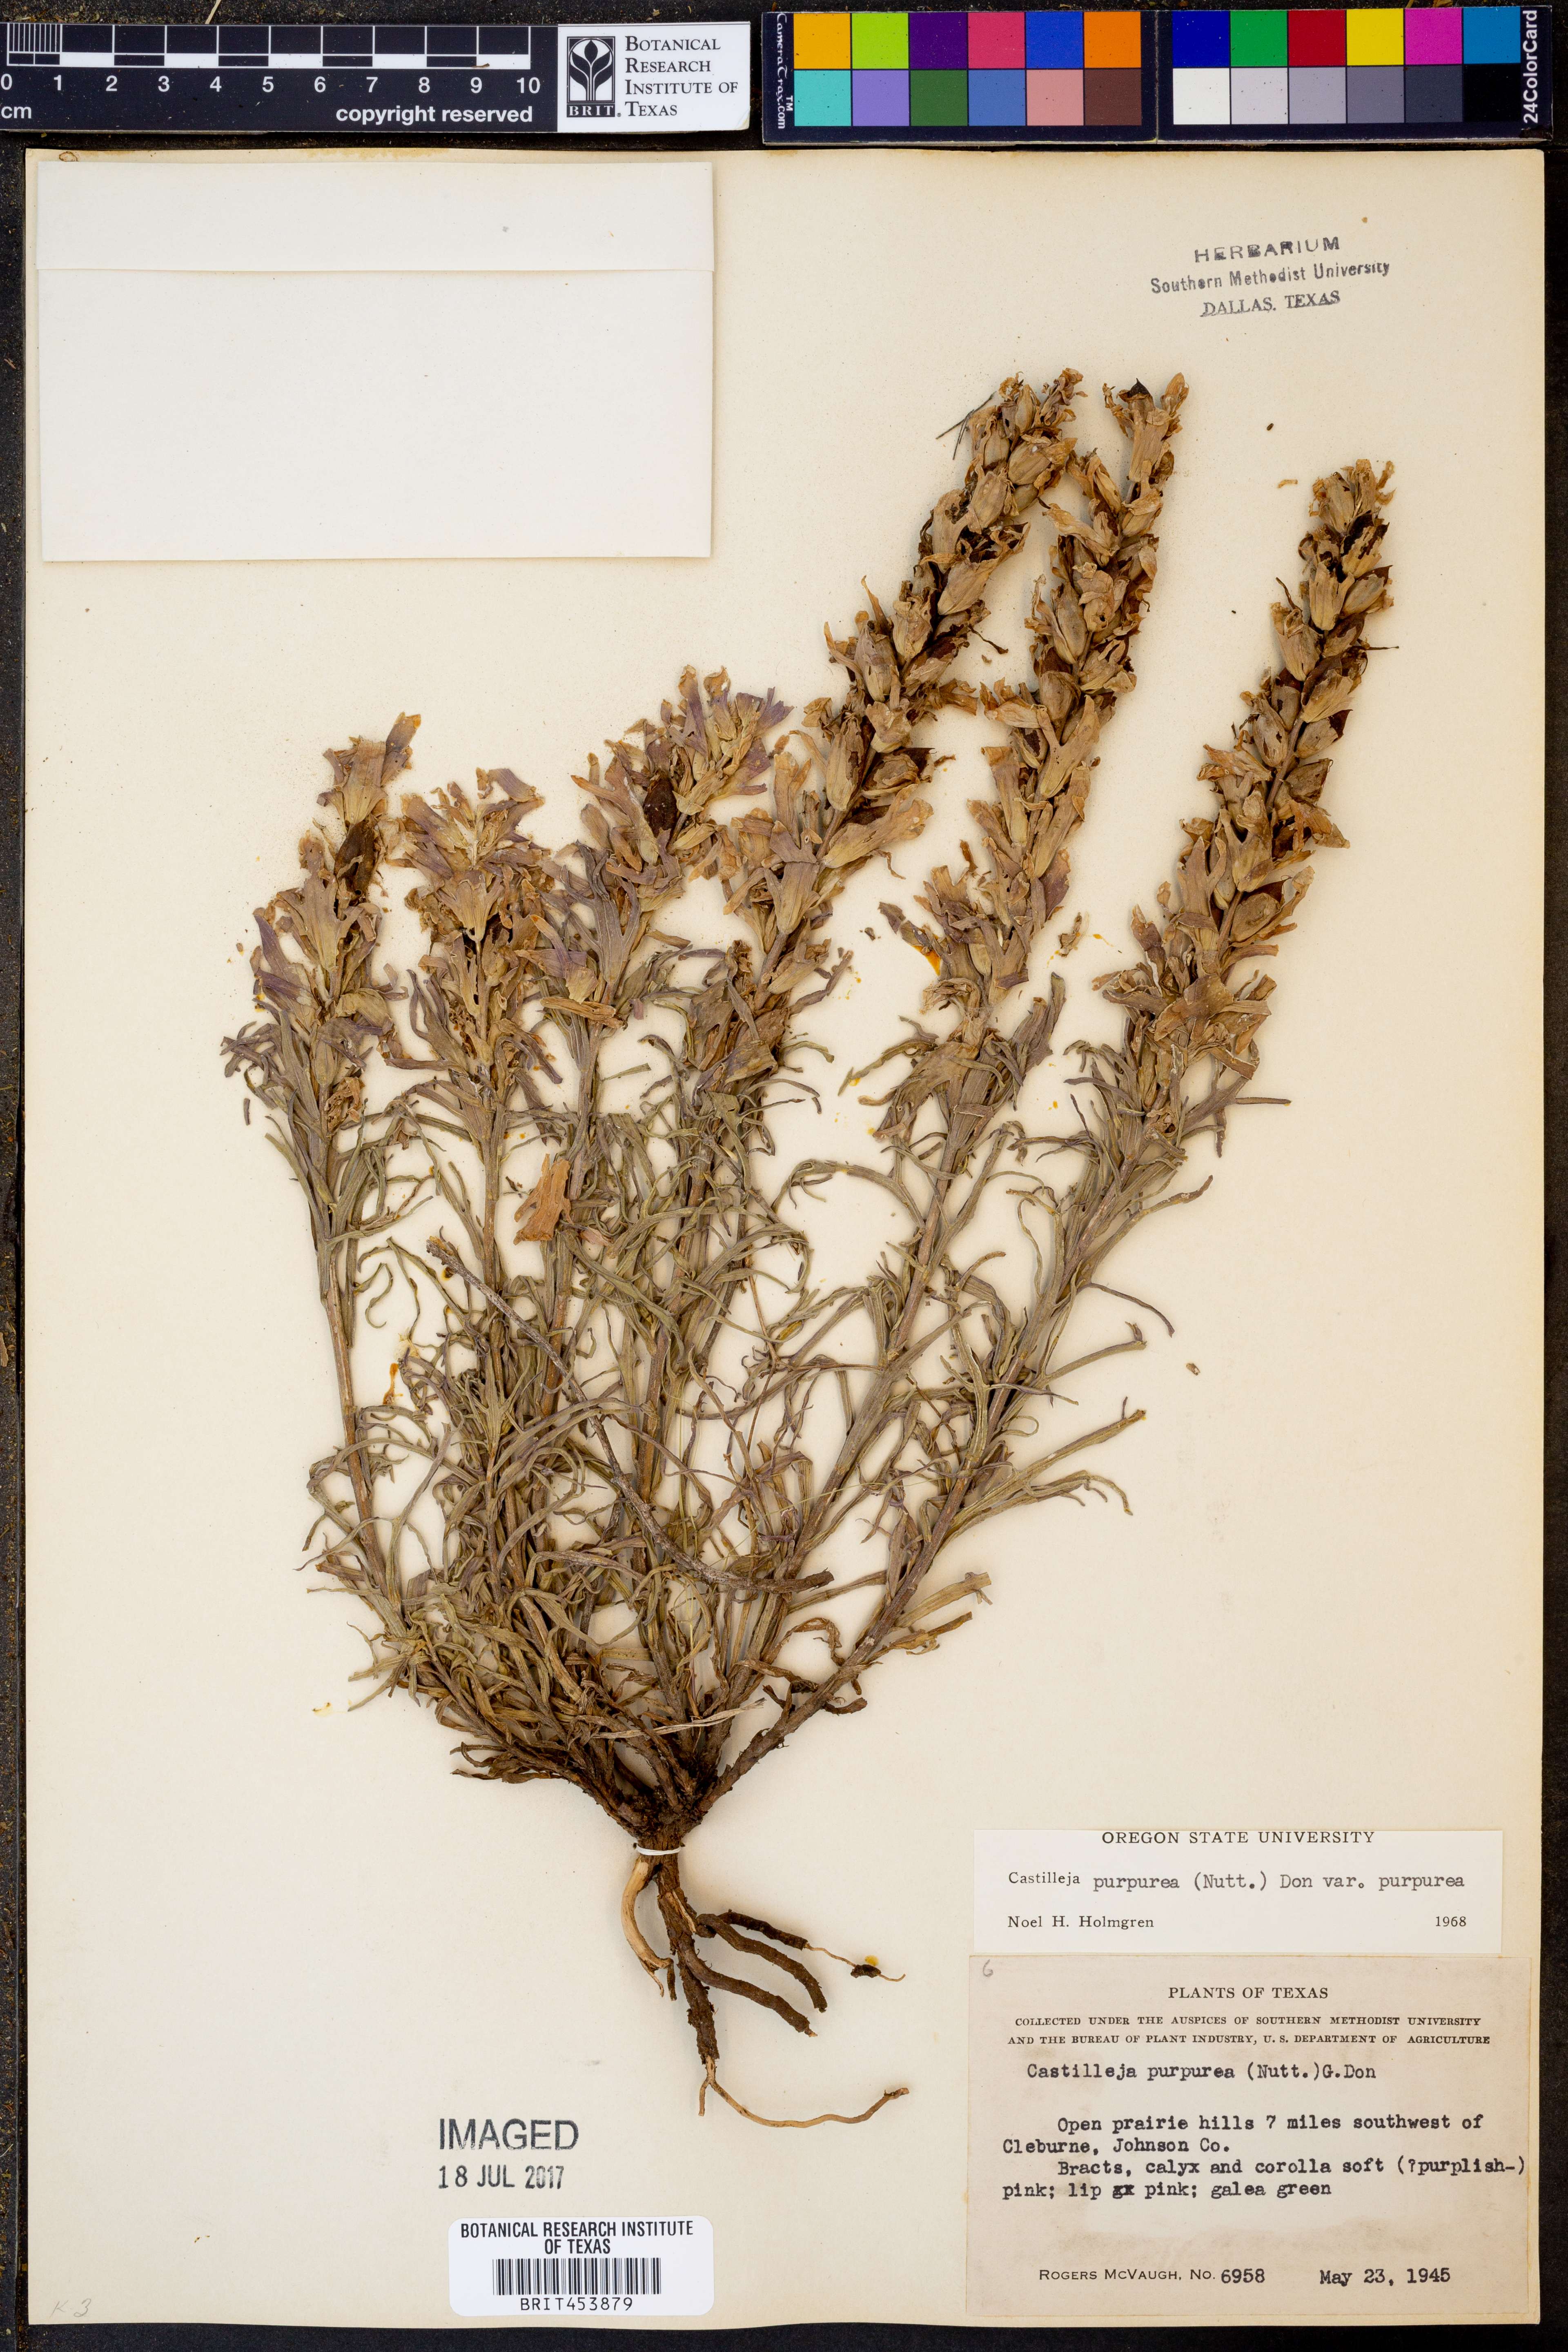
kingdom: Plantae
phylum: Tracheophyta
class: Magnoliopsida
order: Lamiales
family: Orobanchaceae
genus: Castilleja
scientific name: Castilleja purpurea
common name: Plains paintbrush
